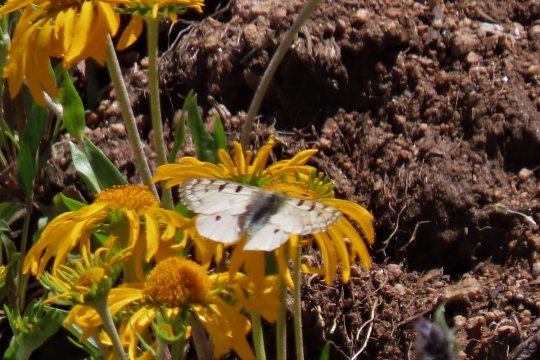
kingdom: Animalia
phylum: Arthropoda
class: Insecta
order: Lepidoptera
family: Papilionidae
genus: Parnassius
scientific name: Parnassius smintheus
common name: Rocky Mountain Parnassian
